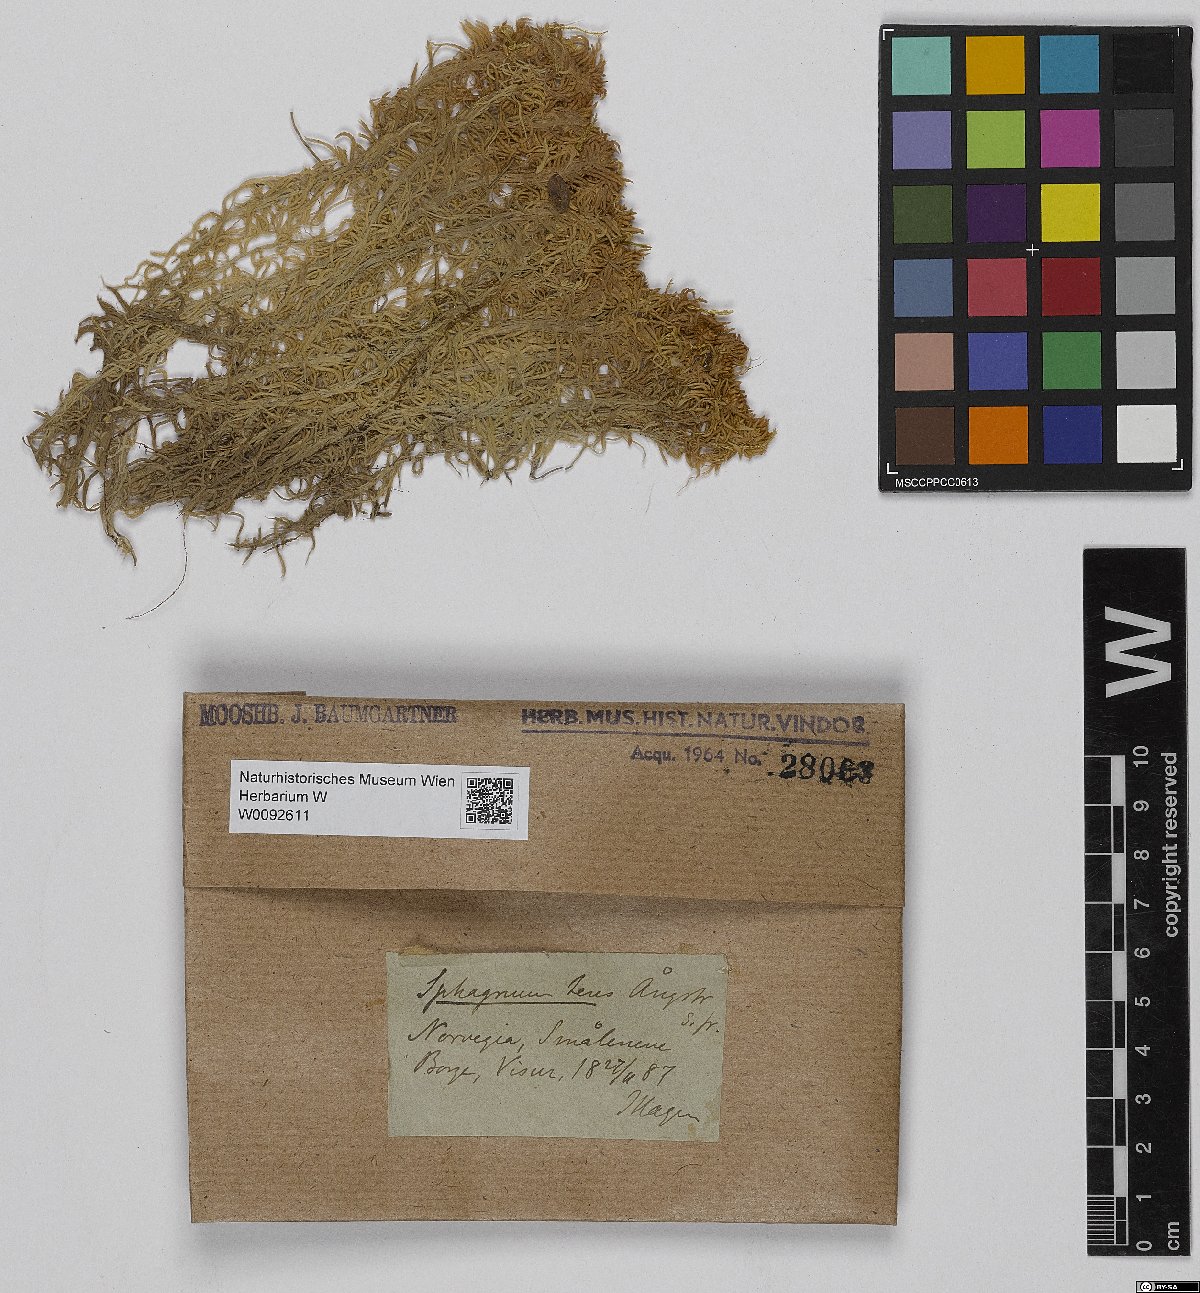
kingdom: Plantae
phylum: Bryophyta
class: Sphagnopsida
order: Sphagnales
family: Sphagnaceae
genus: Sphagnum
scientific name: Sphagnum teres
